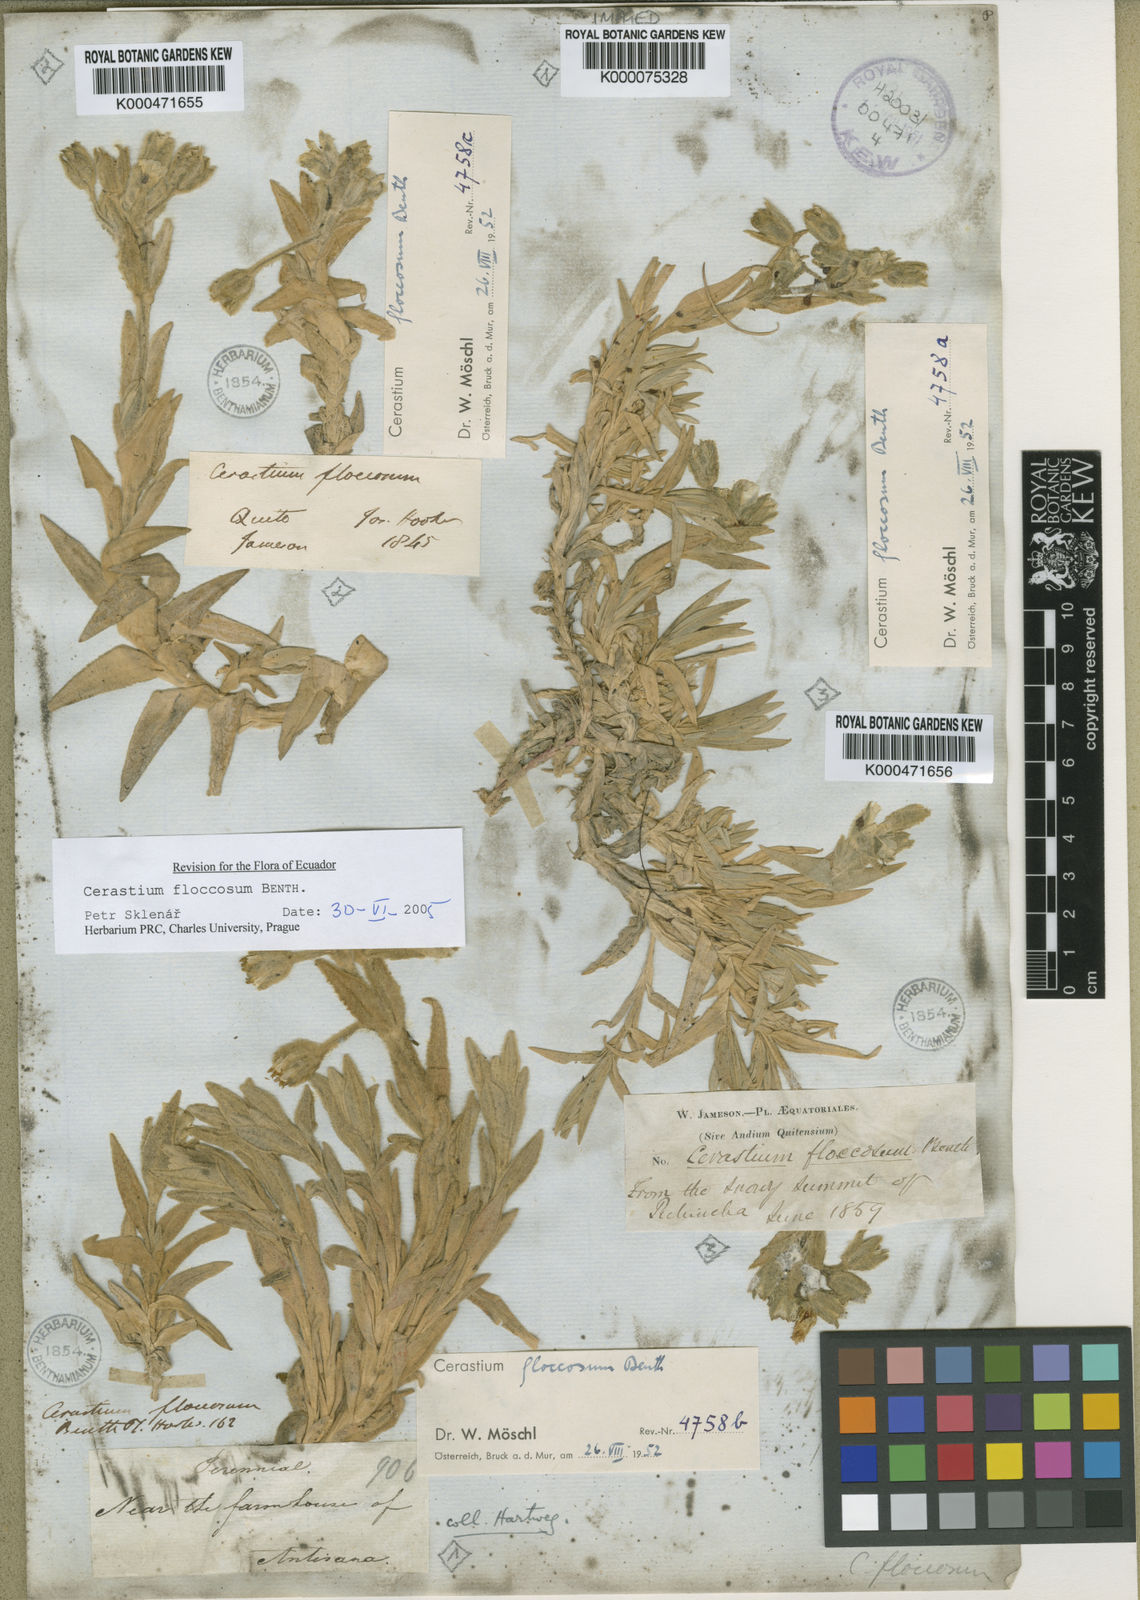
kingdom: Plantae
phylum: Tracheophyta
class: Magnoliopsida
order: Caryophyllales
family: Caryophyllaceae
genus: Cerastium
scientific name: Cerastium floccosum
